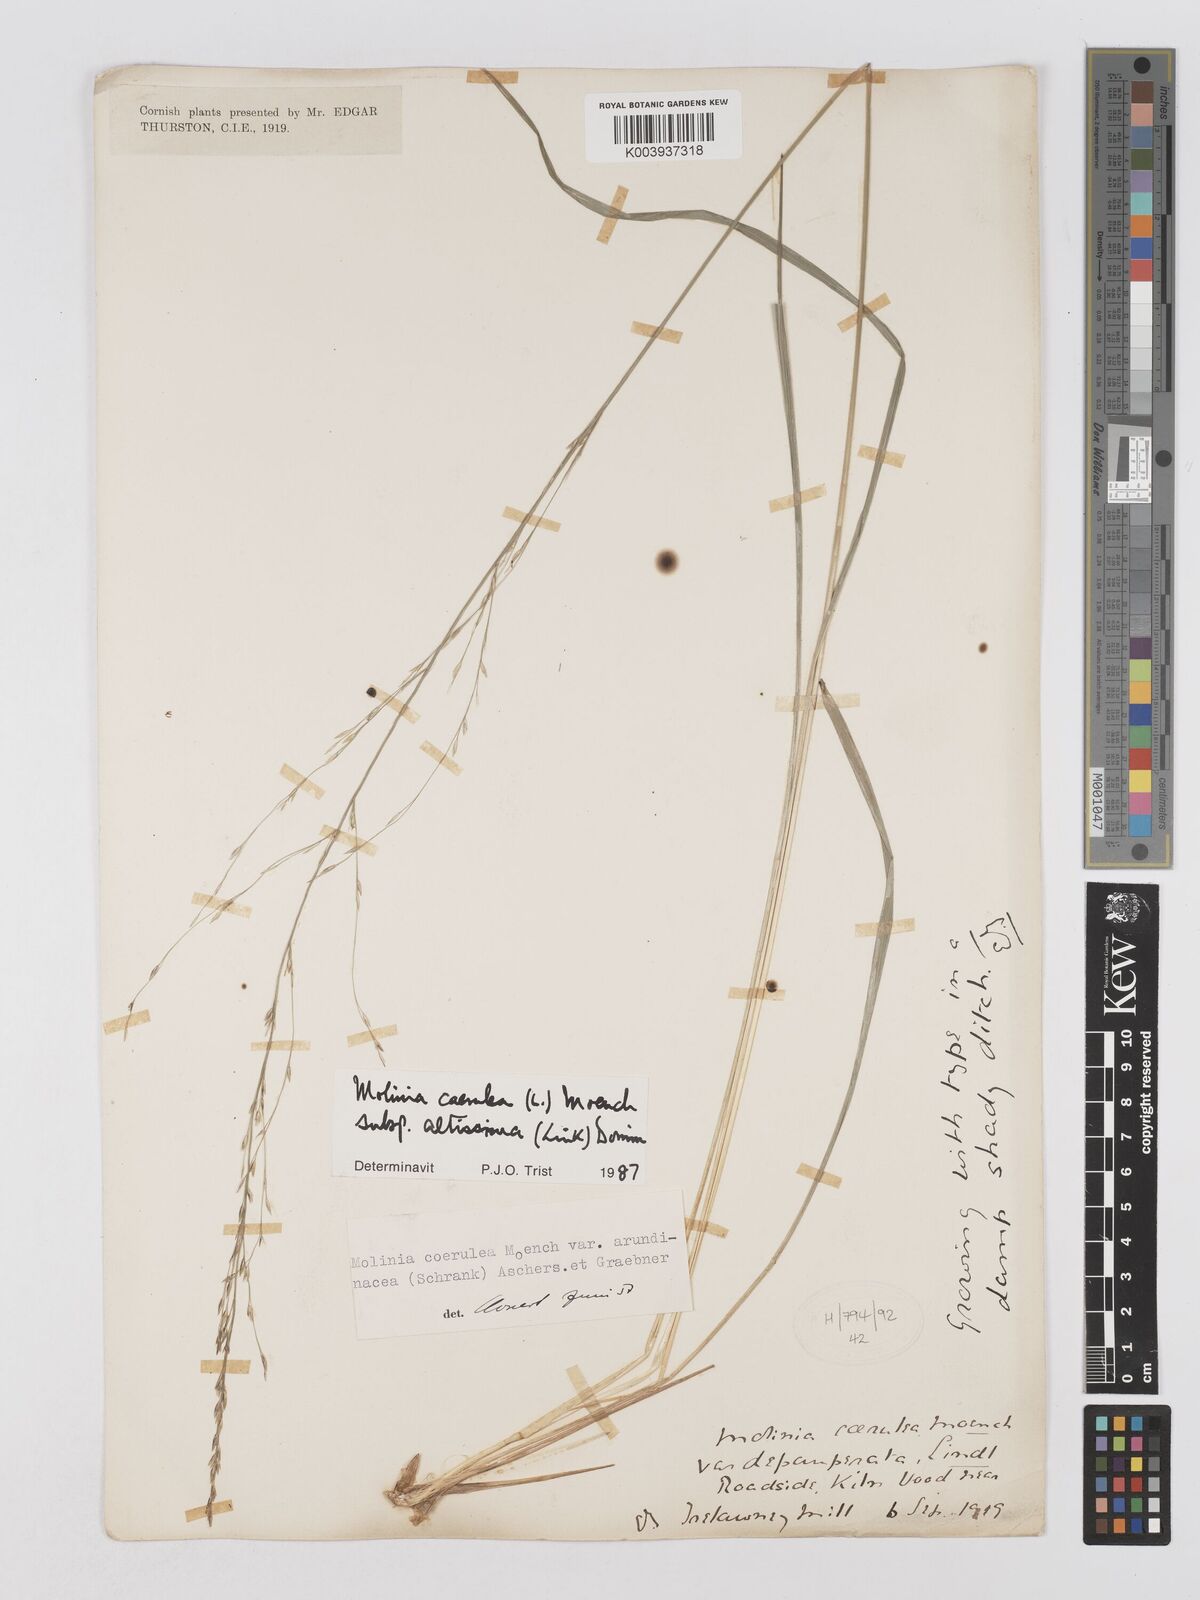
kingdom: Plantae
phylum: Tracheophyta
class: Liliopsida
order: Poales
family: Poaceae
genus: Molinia
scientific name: Molinia caerulea
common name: Purple moor-grass
